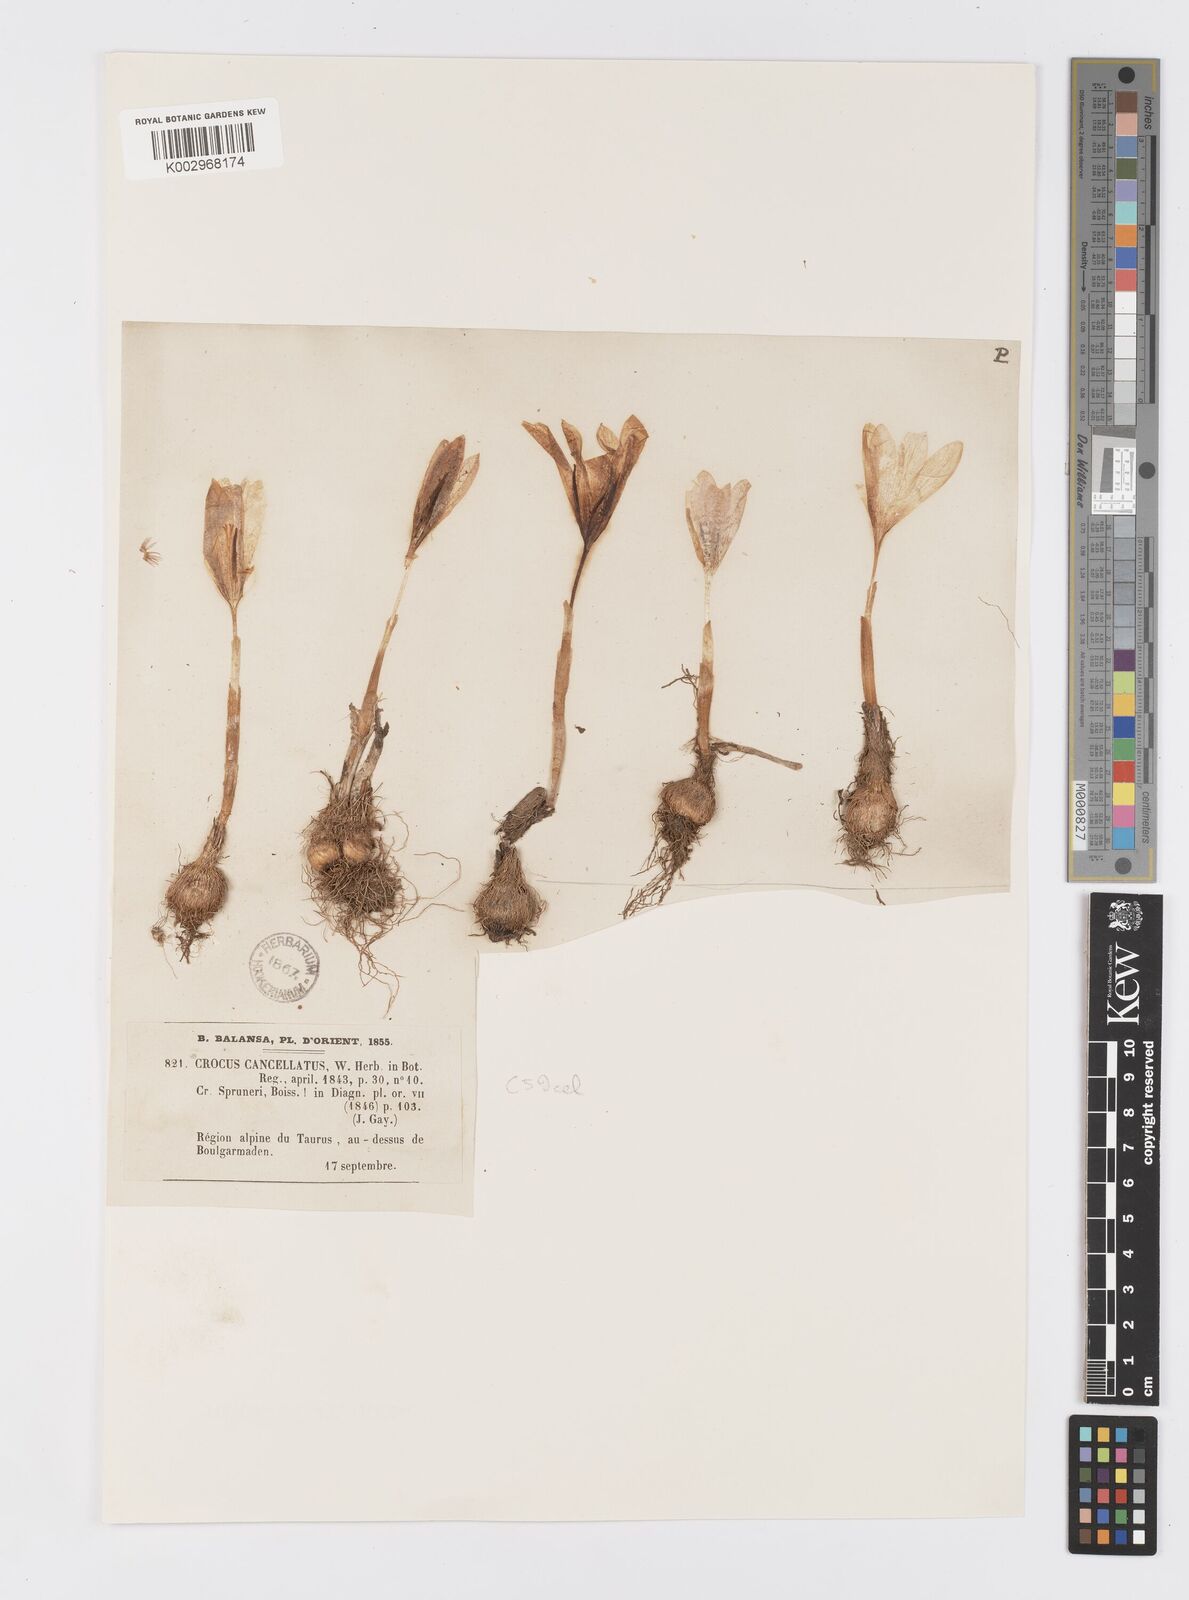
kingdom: Plantae
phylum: Tracheophyta
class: Liliopsida
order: Asparagales
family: Iridaceae
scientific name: Iridaceae
